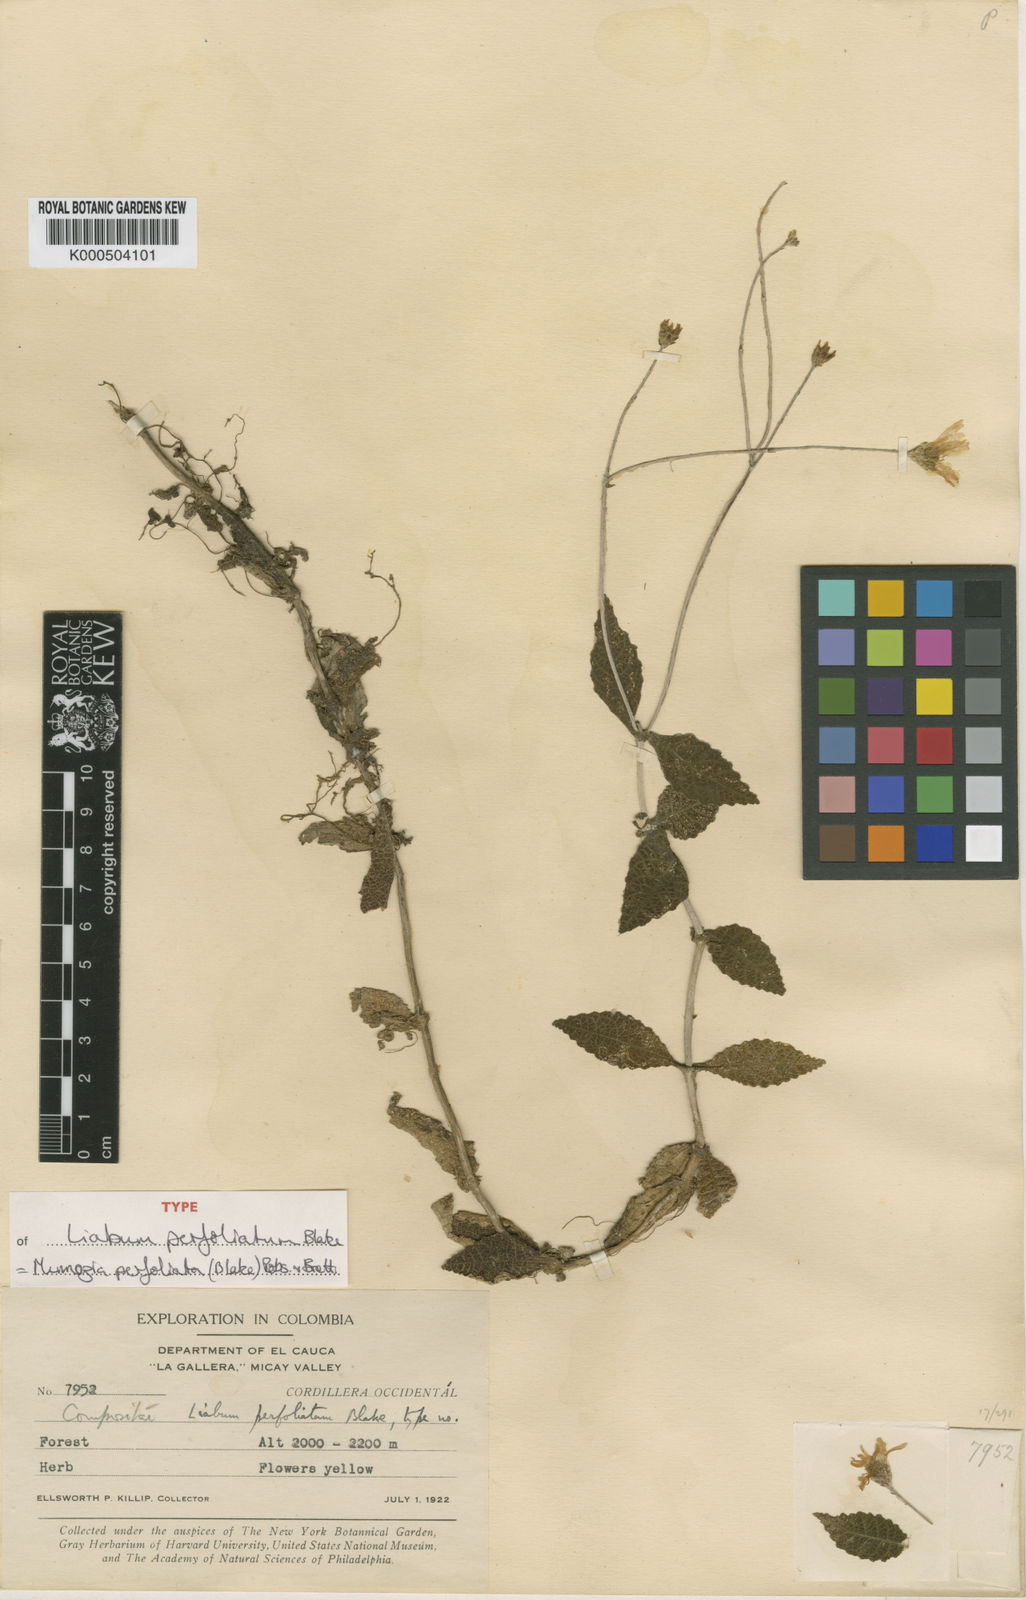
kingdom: Plantae
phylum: Tracheophyta
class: Magnoliopsida
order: Asterales
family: Asteraceae
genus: Dillandia
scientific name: Dillandia perfoliata
